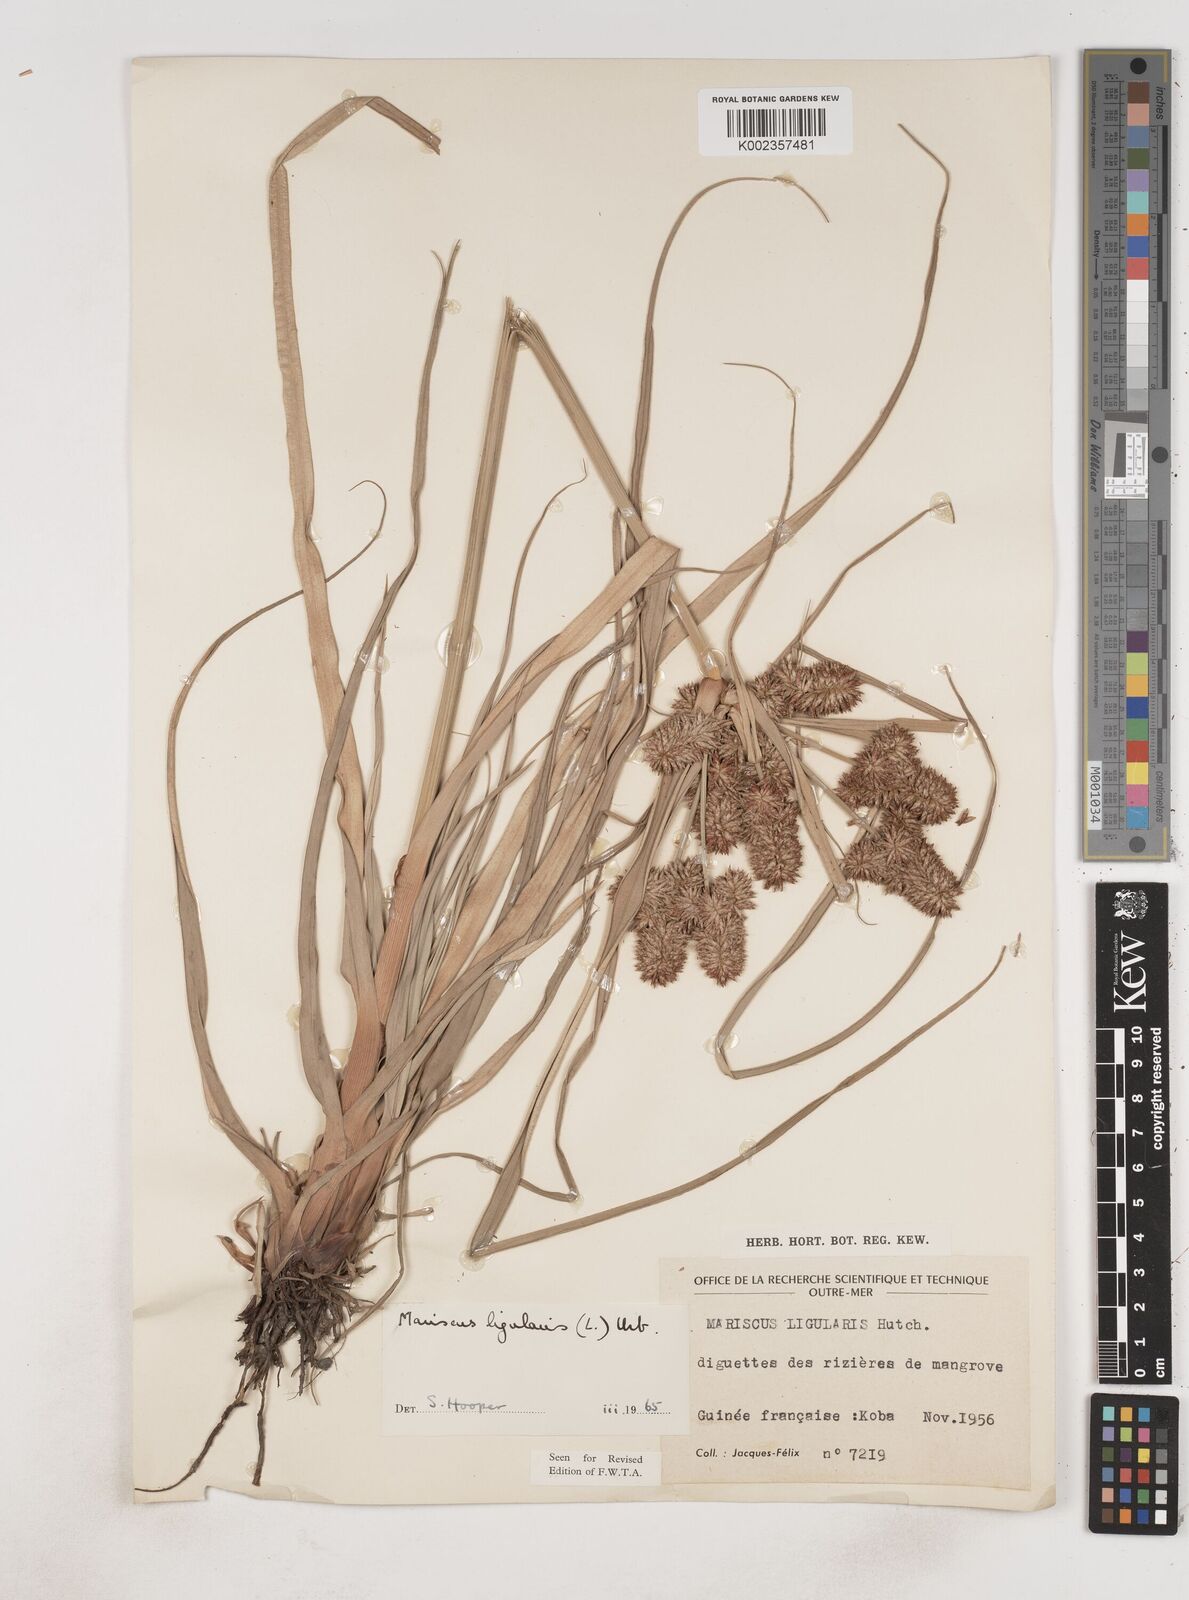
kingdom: Plantae
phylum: Tracheophyta
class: Liliopsida
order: Poales
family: Cyperaceae
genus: Cyperus
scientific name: Cyperus ligularis
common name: Swamp flat sedge
